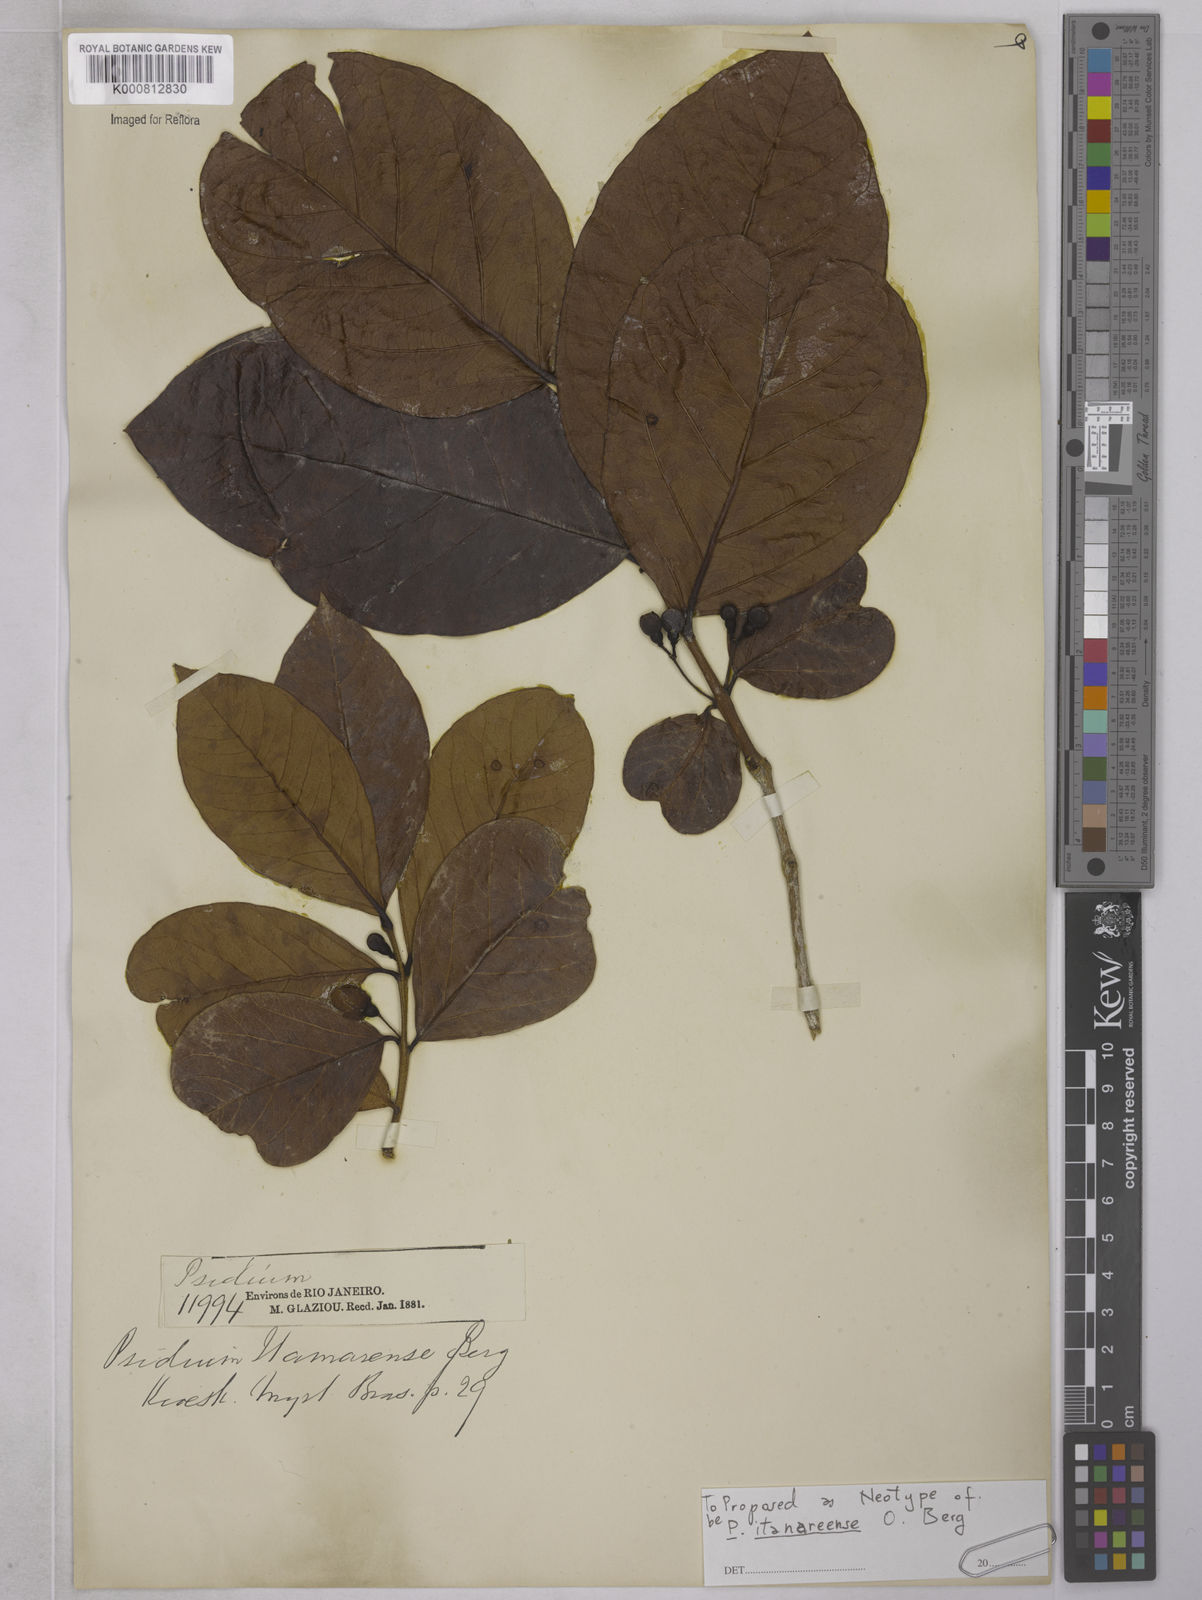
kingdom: Plantae
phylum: Tracheophyta
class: Magnoliopsida
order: Myrtales
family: Myrtaceae
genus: Psidium
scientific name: Psidium itanareense
